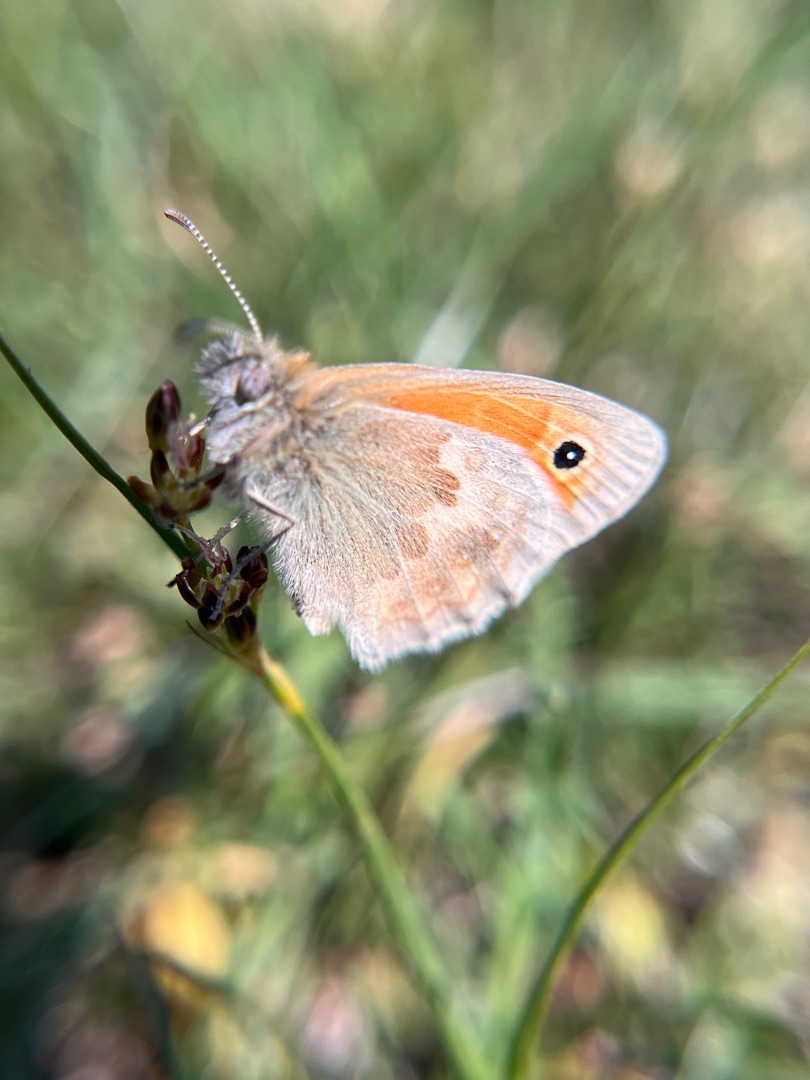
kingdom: Animalia
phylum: Arthropoda
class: Insecta
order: Lepidoptera
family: Nymphalidae
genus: Coenonympha
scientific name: Coenonympha pamphilus
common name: Okkergul randøje
